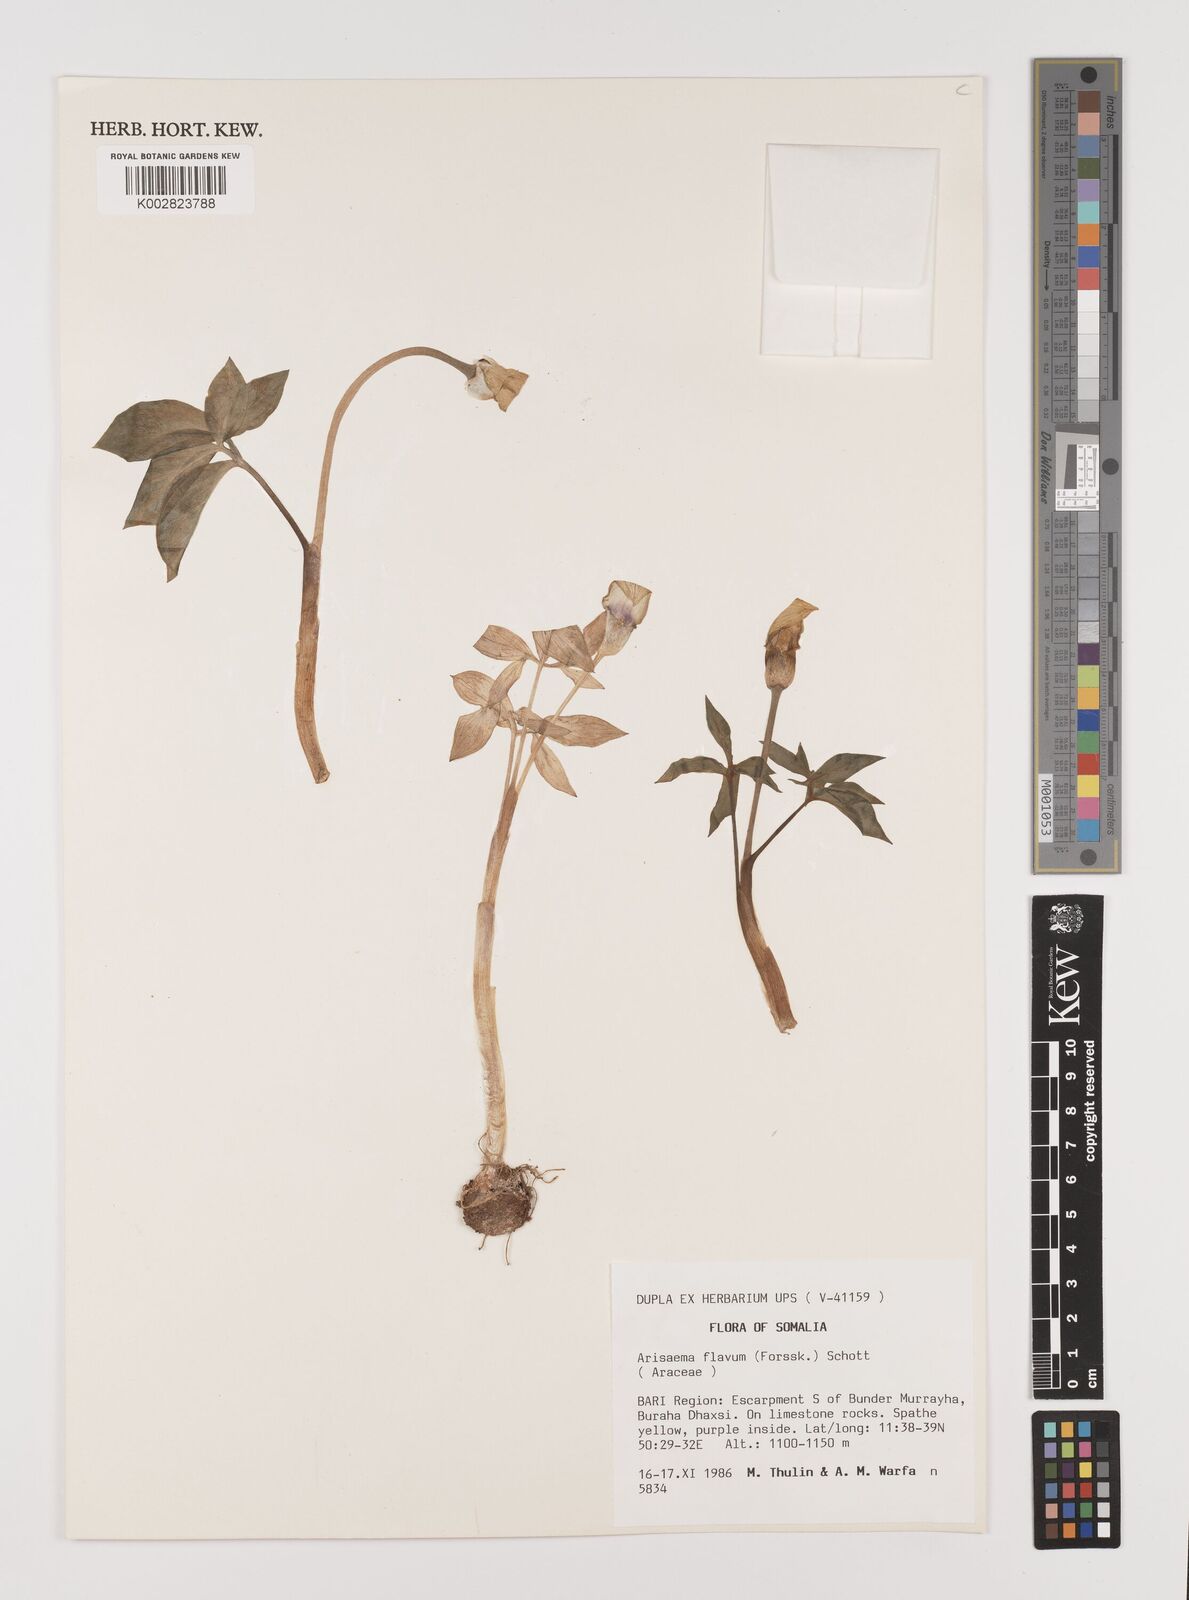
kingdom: Plantae
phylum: Tracheophyta
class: Liliopsida
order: Alismatales
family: Araceae
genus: Arisaema
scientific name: Arisaema flavum
